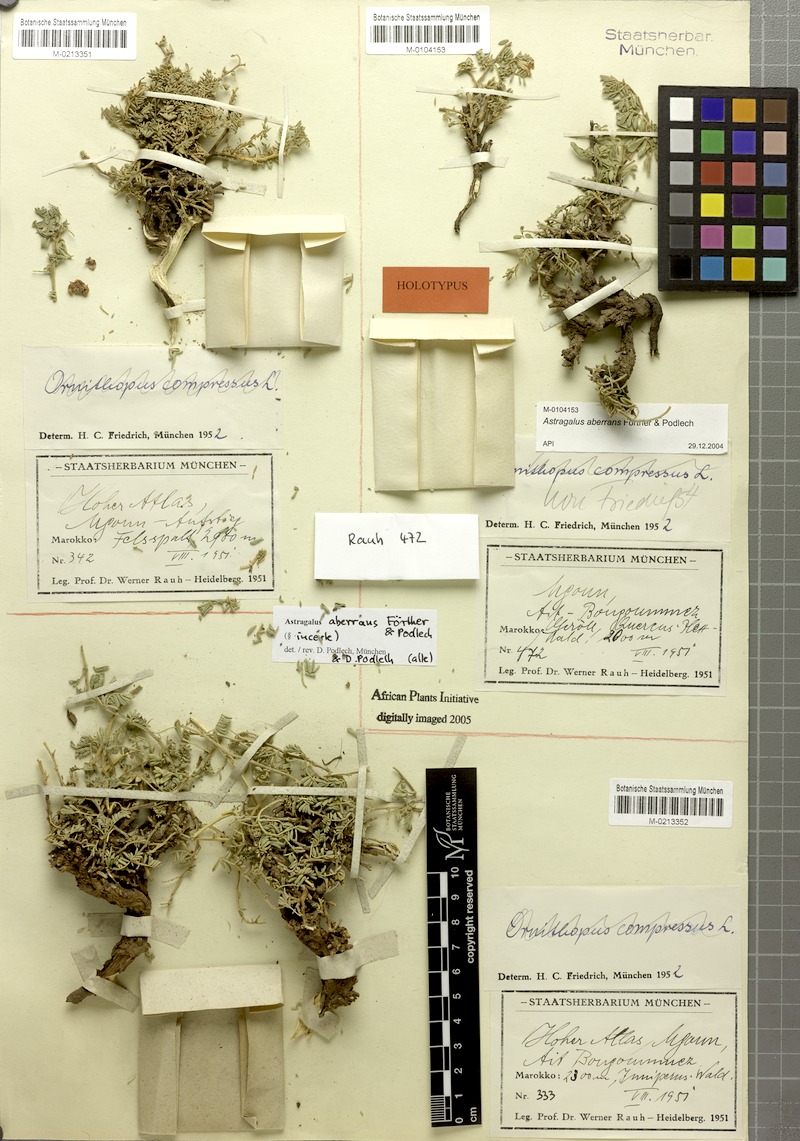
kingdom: Plantae
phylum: Tracheophyta
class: Magnoliopsida
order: Fabales
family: Fabaceae
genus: Astragalus
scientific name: Astragalus aberrans
